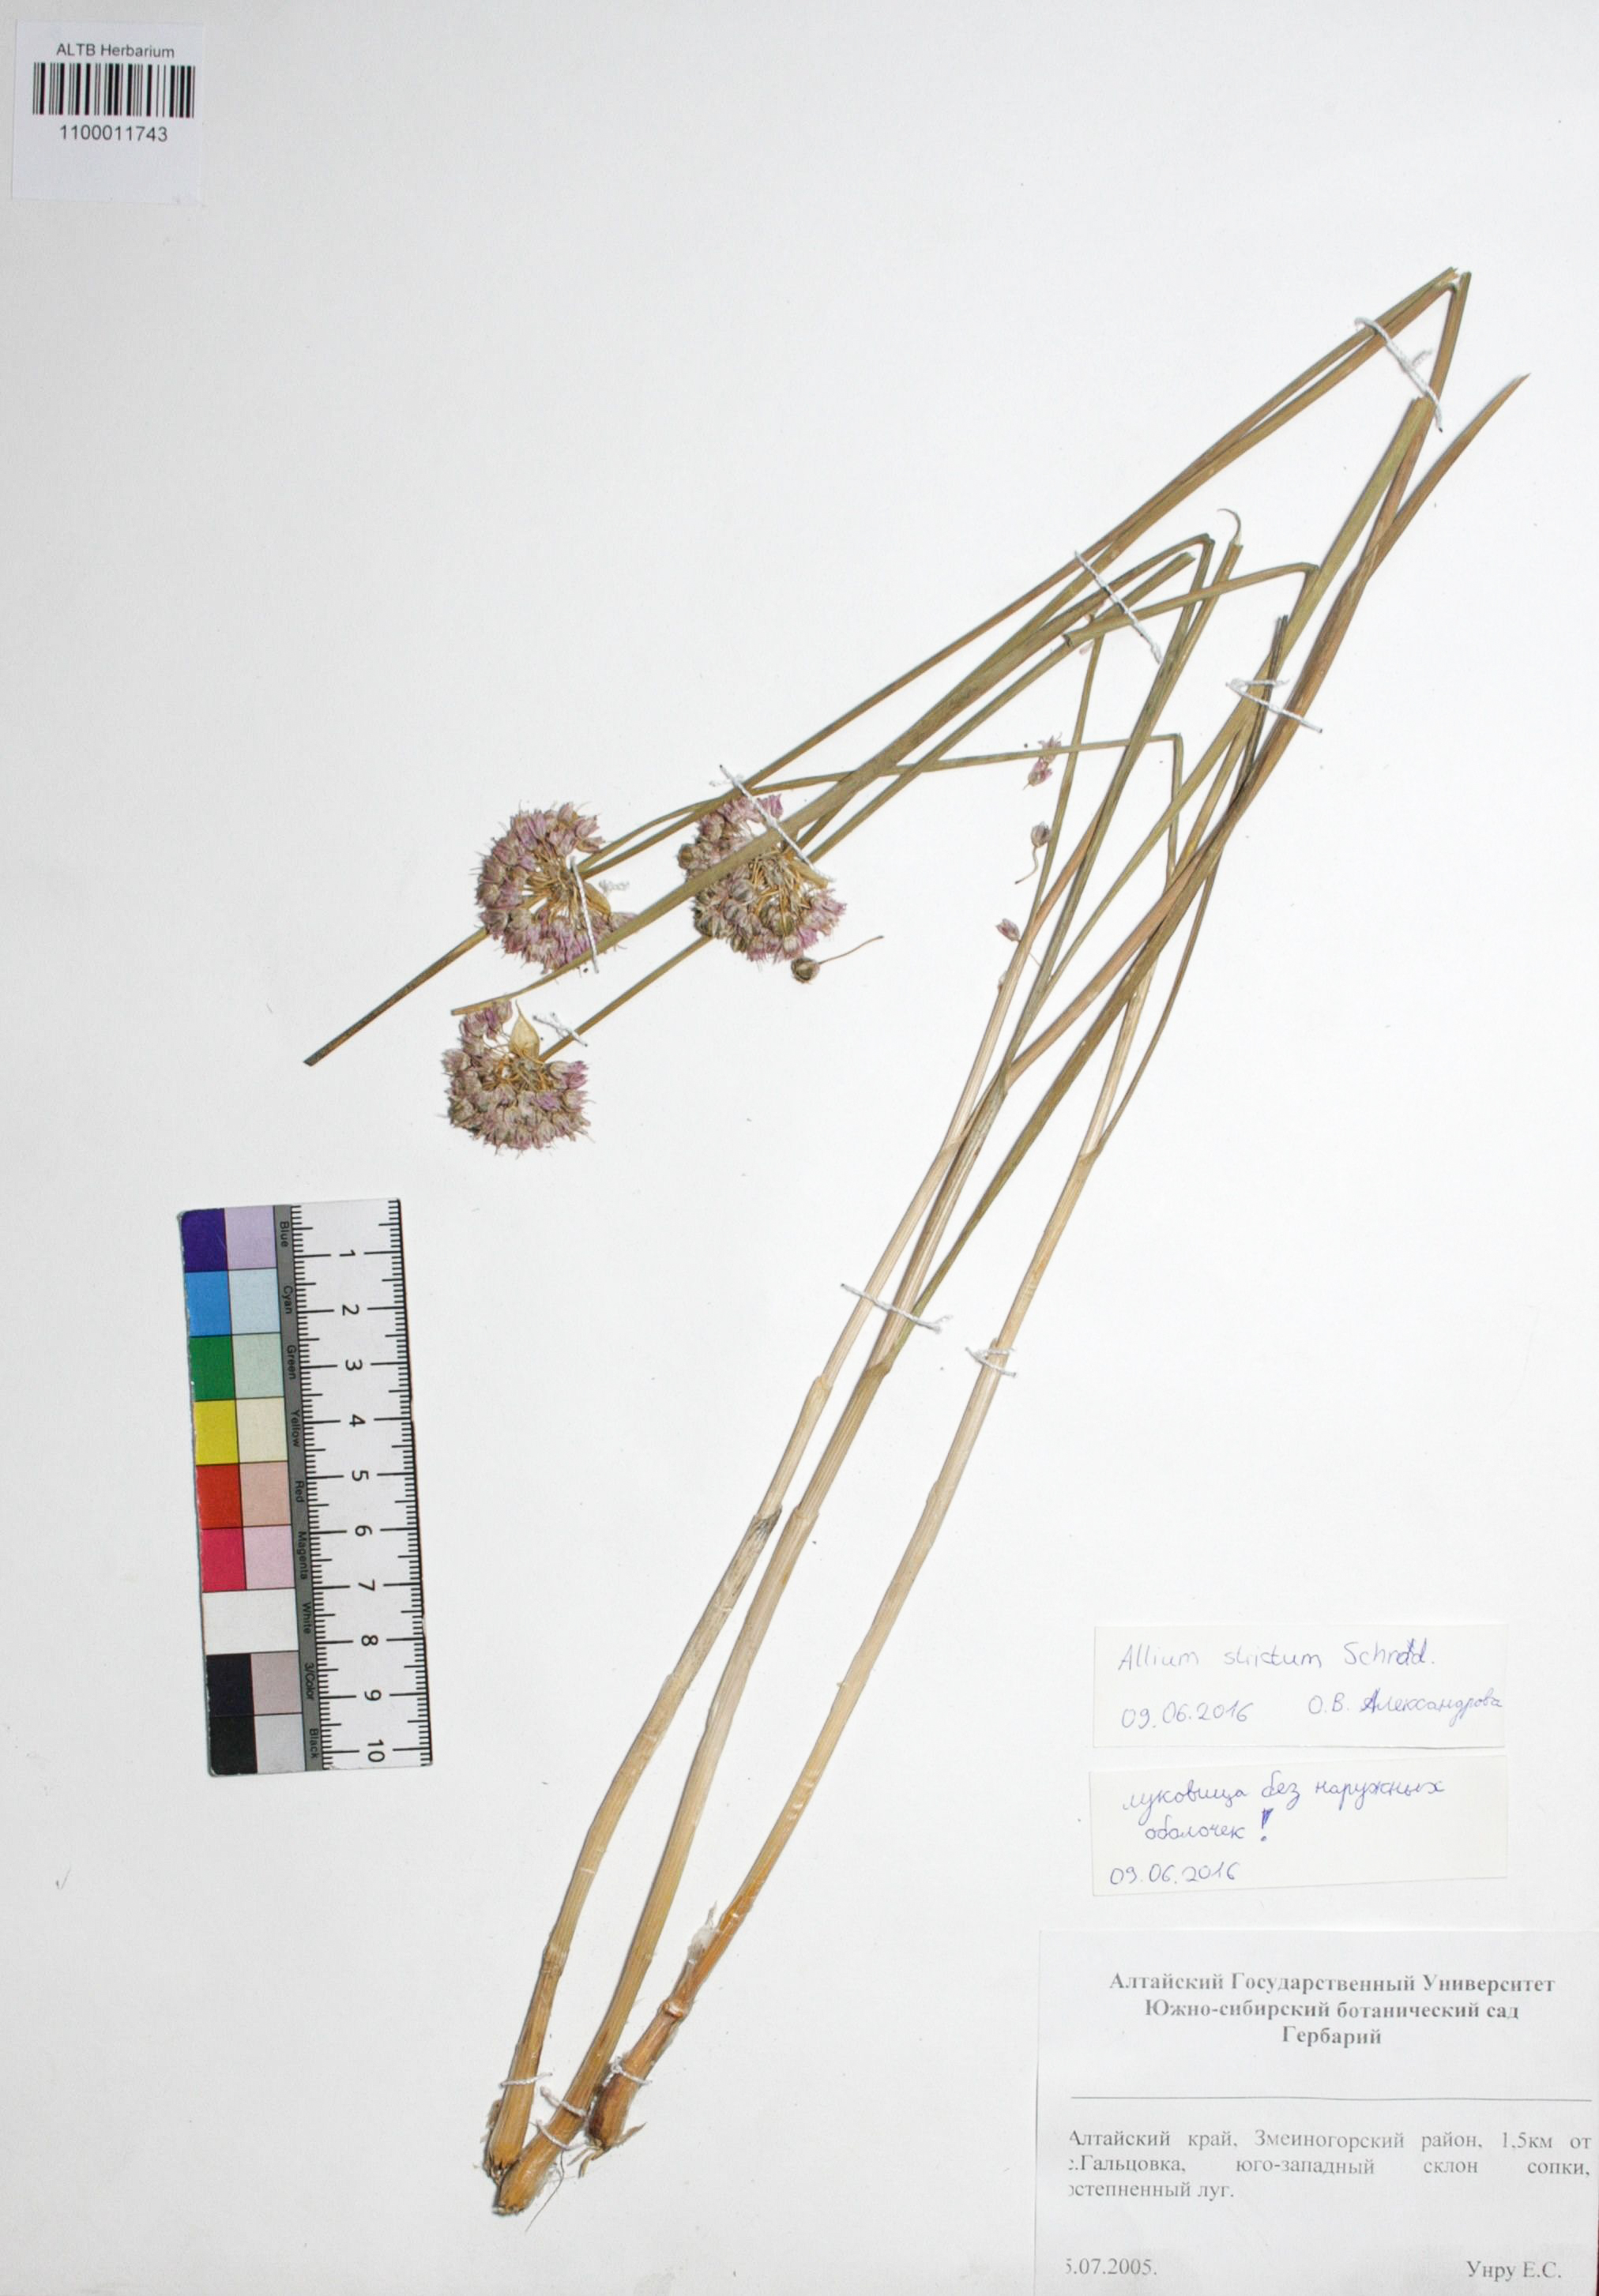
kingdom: Plantae
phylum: Tracheophyta
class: Liliopsida
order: Asparagales
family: Amaryllidaceae
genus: Allium
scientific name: Allium strictum
